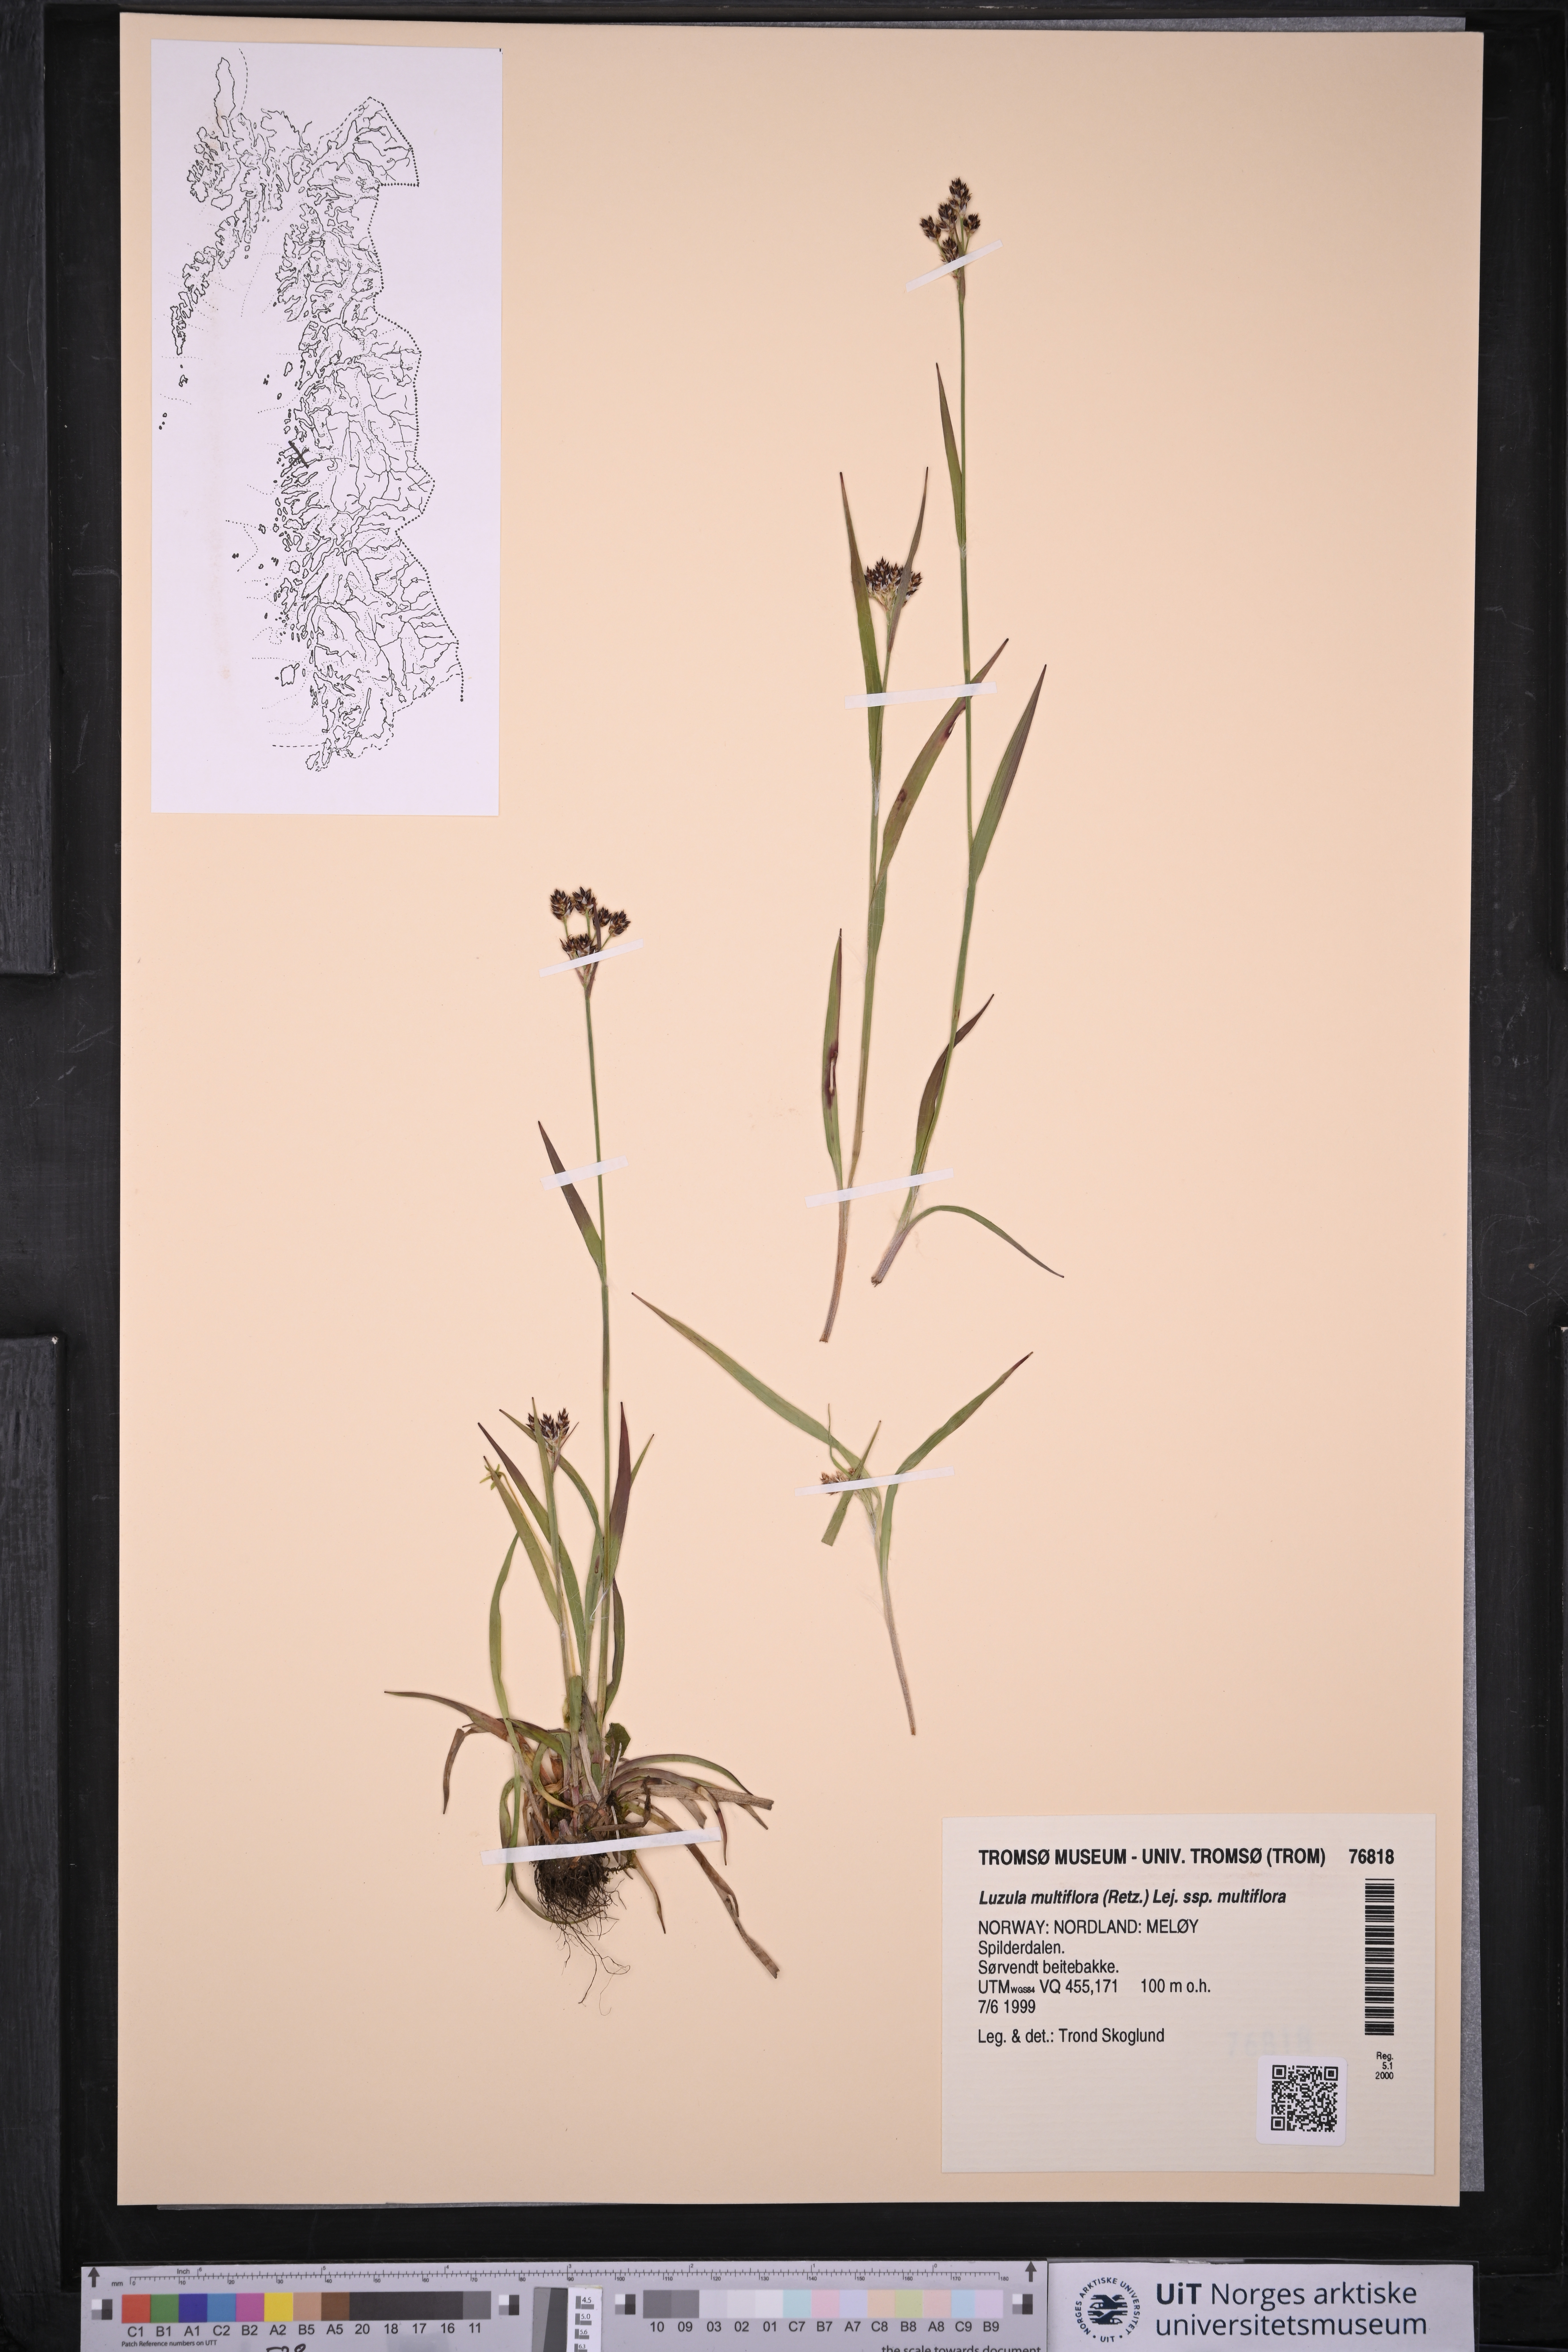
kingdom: Plantae
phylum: Tracheophyta
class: Liliopsida
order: Poales
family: Juncaceae
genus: Luzula
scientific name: Luzula multiflora
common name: Heath wood-rush
